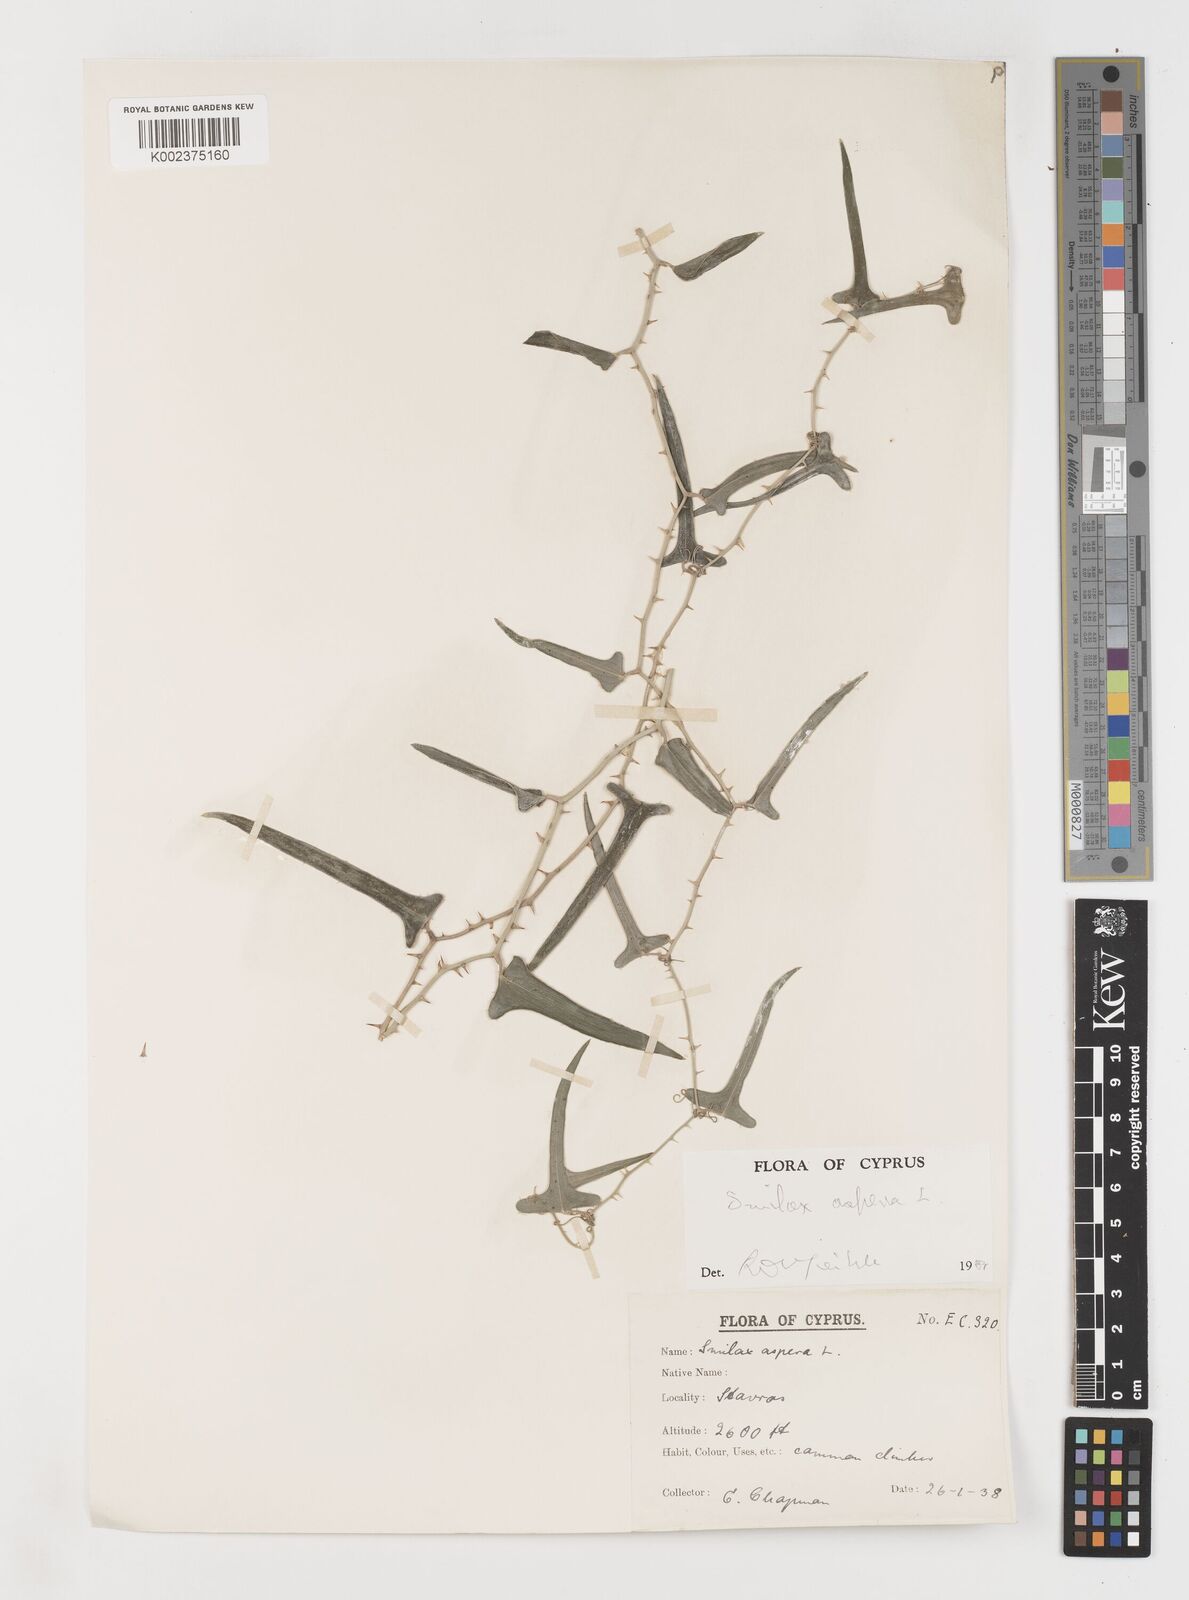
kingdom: Plantae
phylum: Tracheophyta
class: Liliopsida
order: Liliales
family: Smilacaceae
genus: Smilax
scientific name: Smilax aspera
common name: Common smilax
